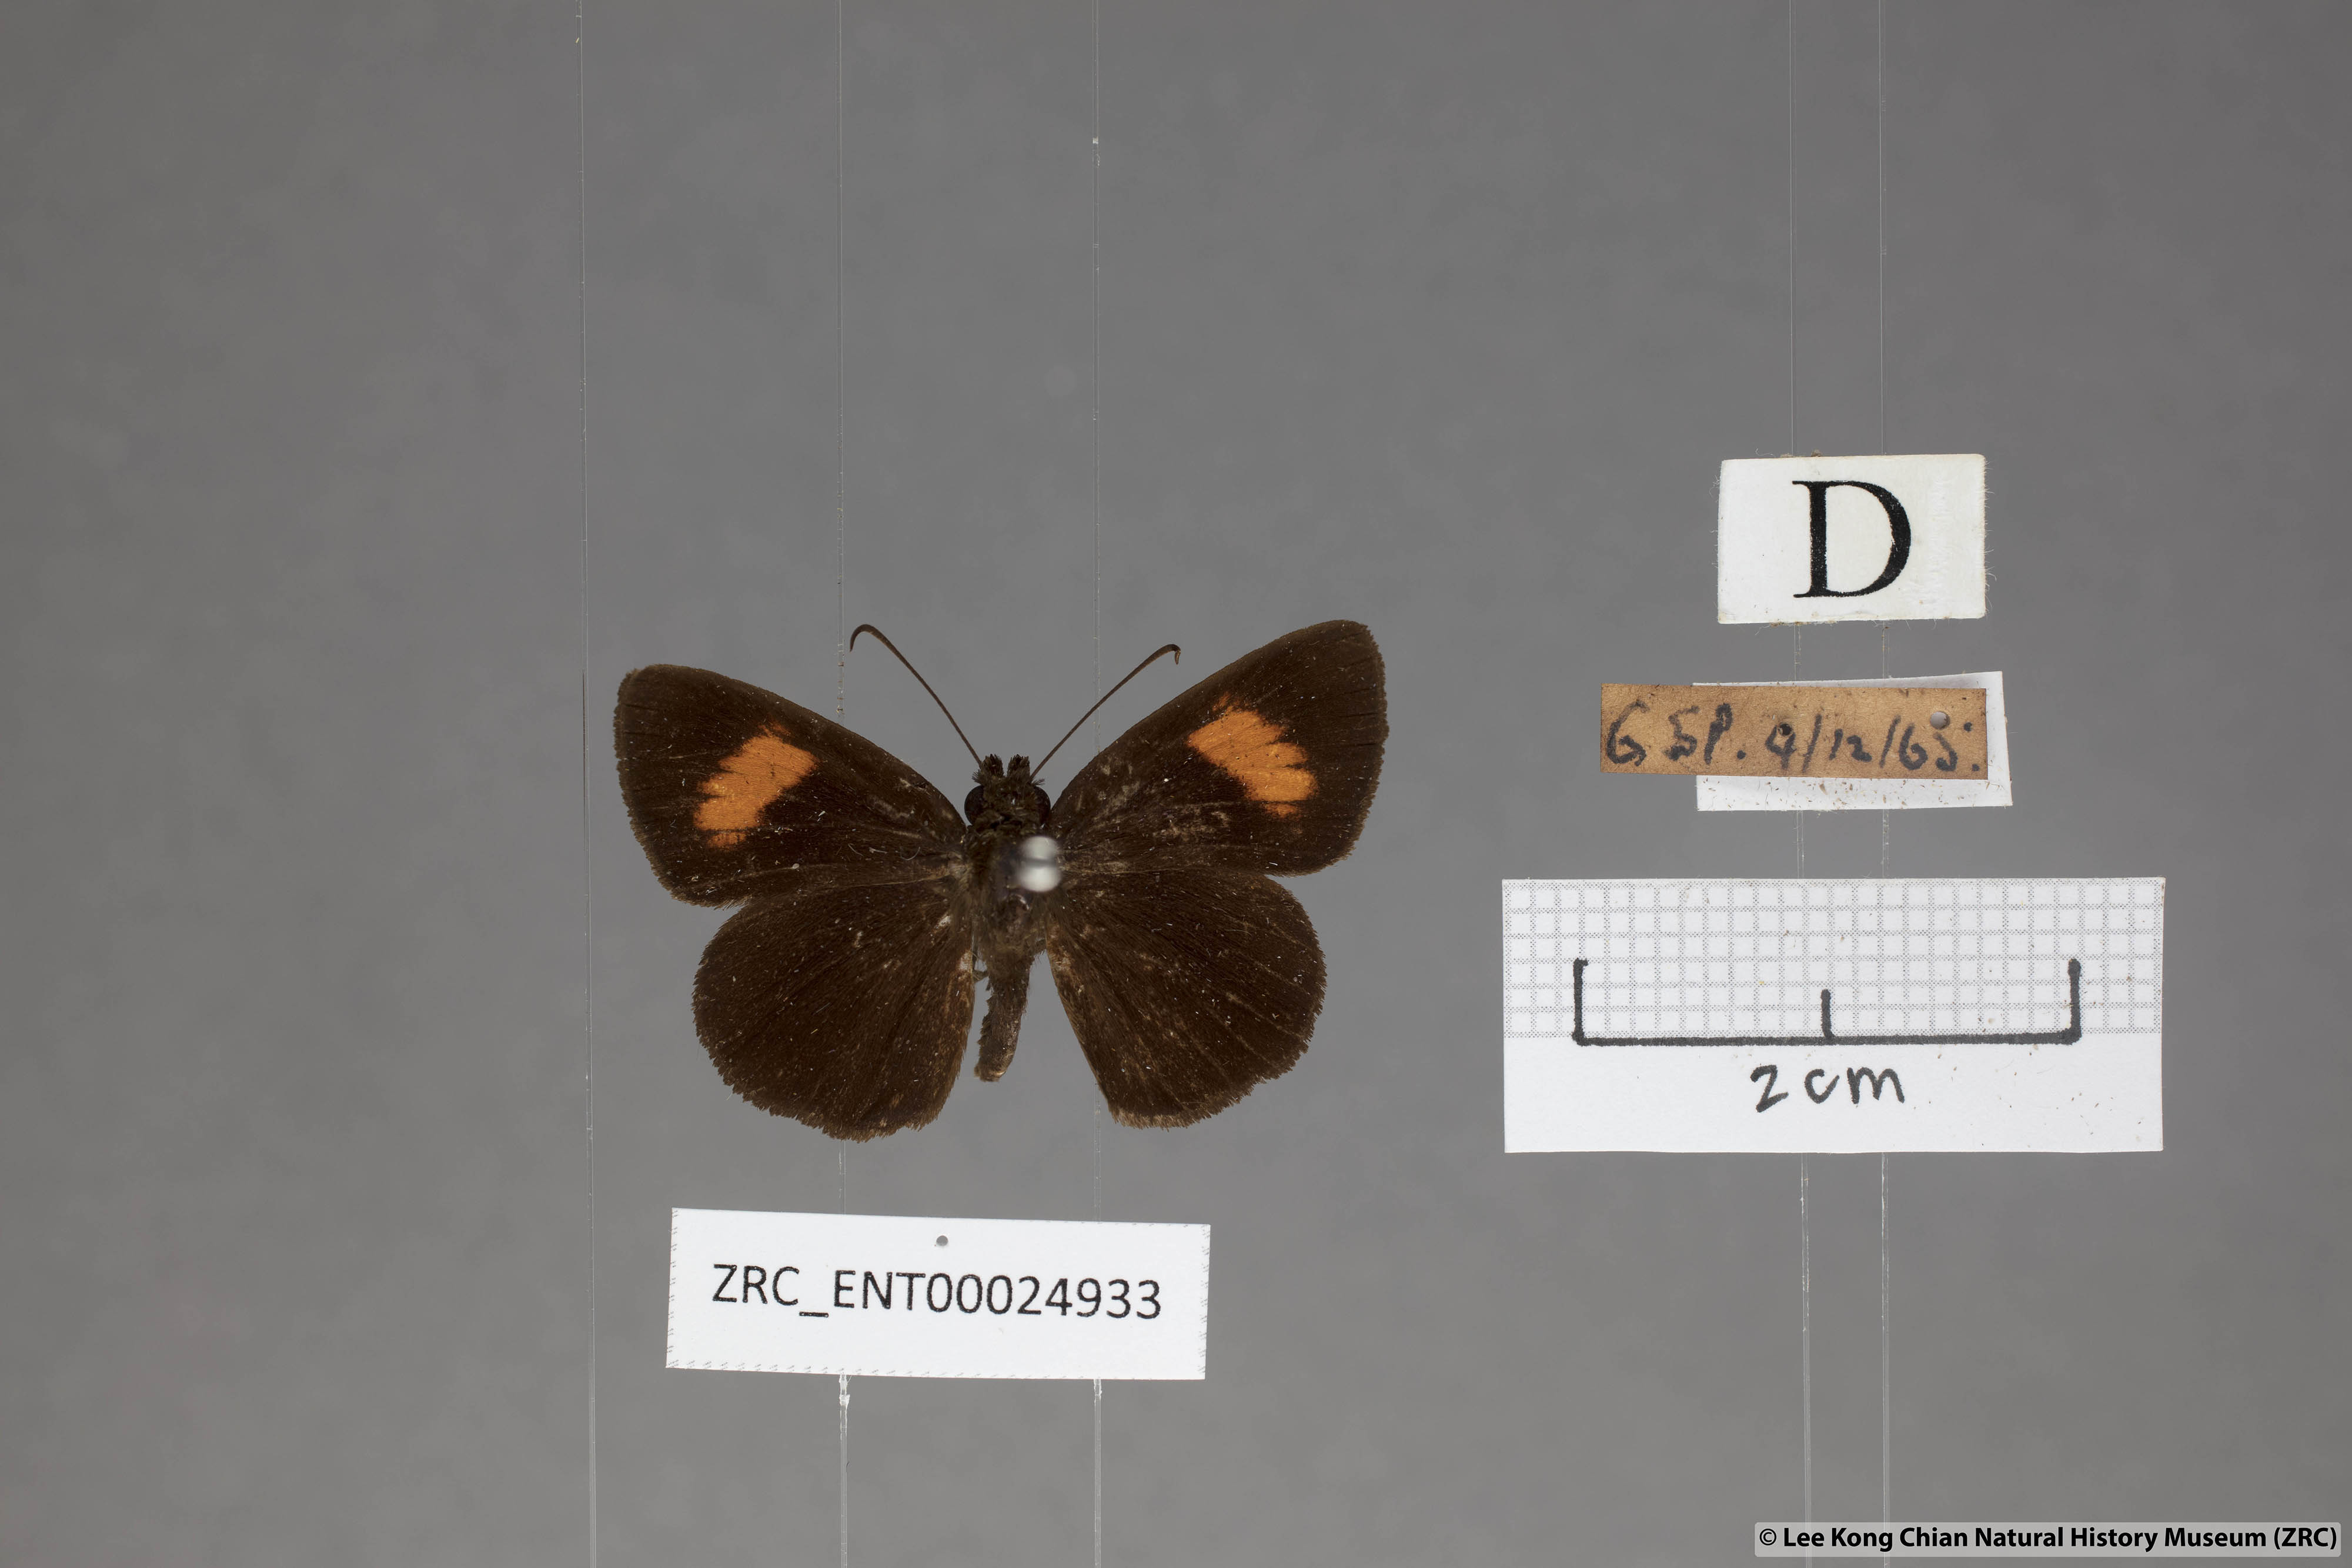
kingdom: Animalia
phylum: Arthropoda
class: Insecta
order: Lepidoptera
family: Hesperiidae
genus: Koruthaialos
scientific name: Koruthaialos rubecula
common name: Narrow-banded velvet bob
